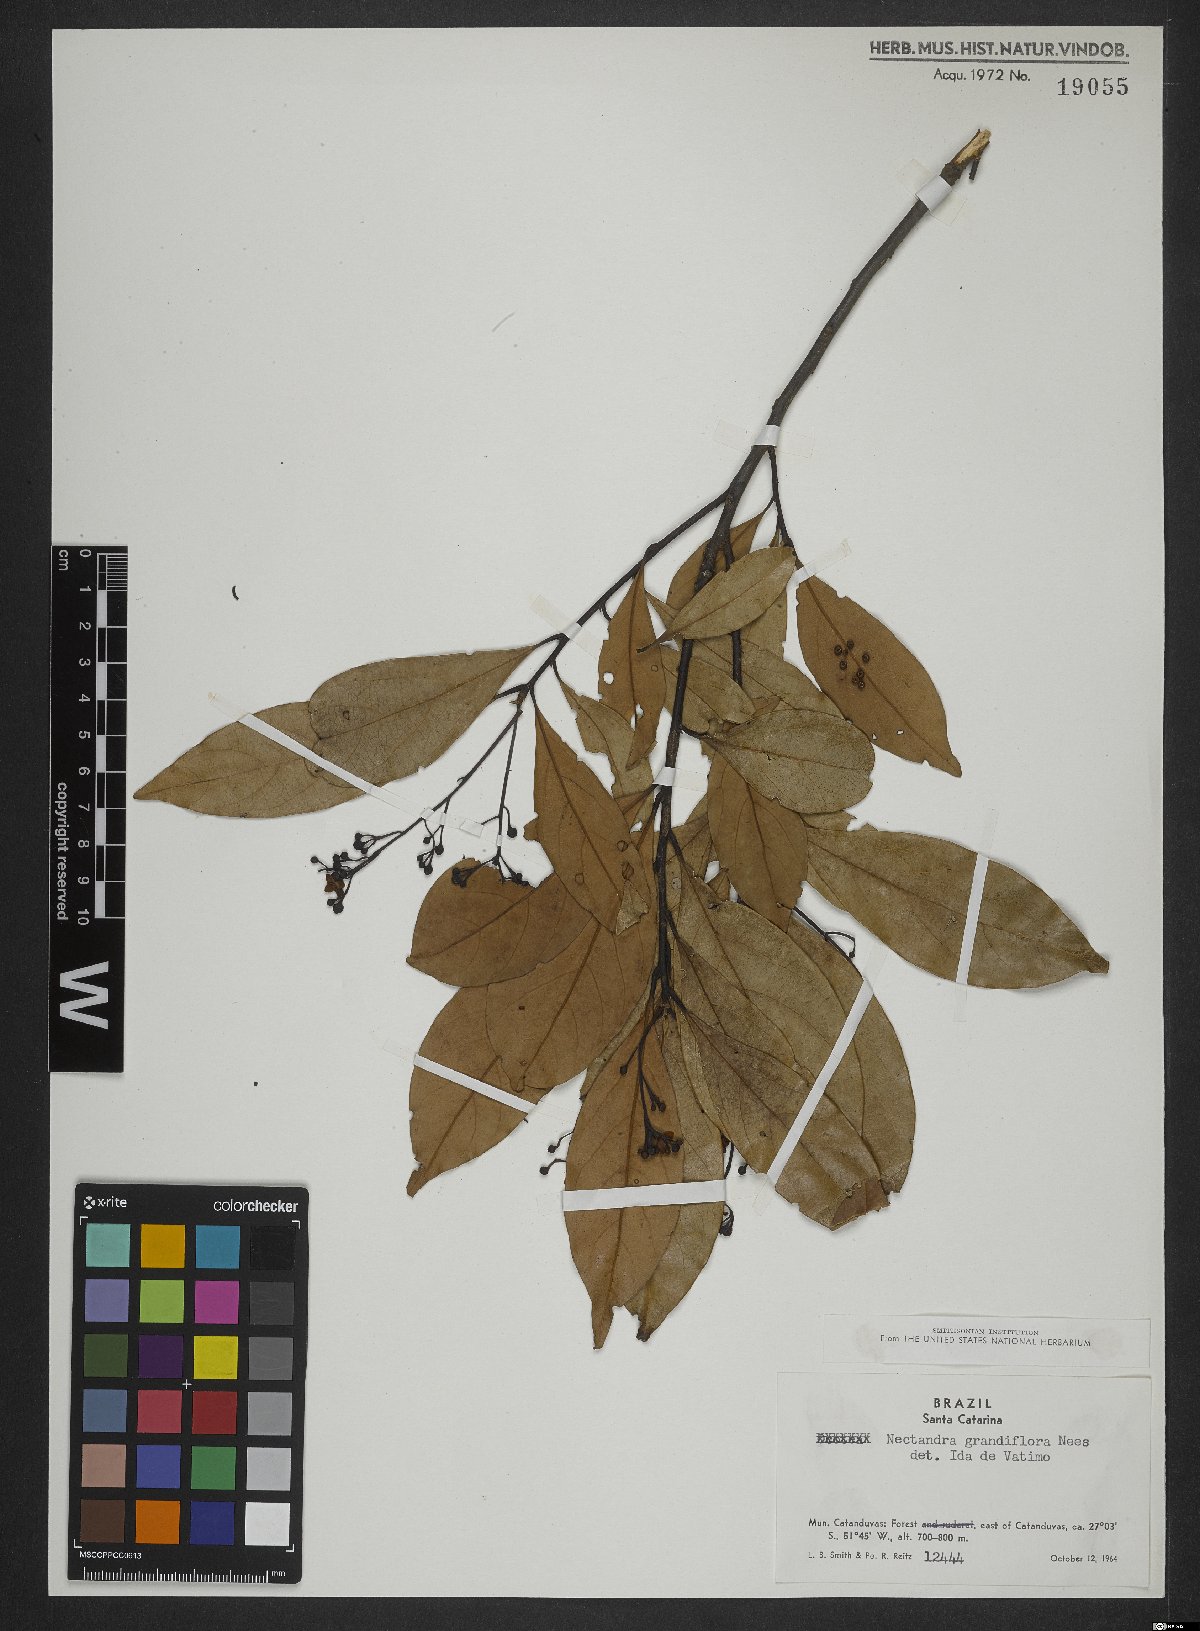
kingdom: Plantae
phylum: Tracheophyta
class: Magnoliopsida
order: Laurales
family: Lauraceae
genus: Nectandra
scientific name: Nectandra grandiflora
